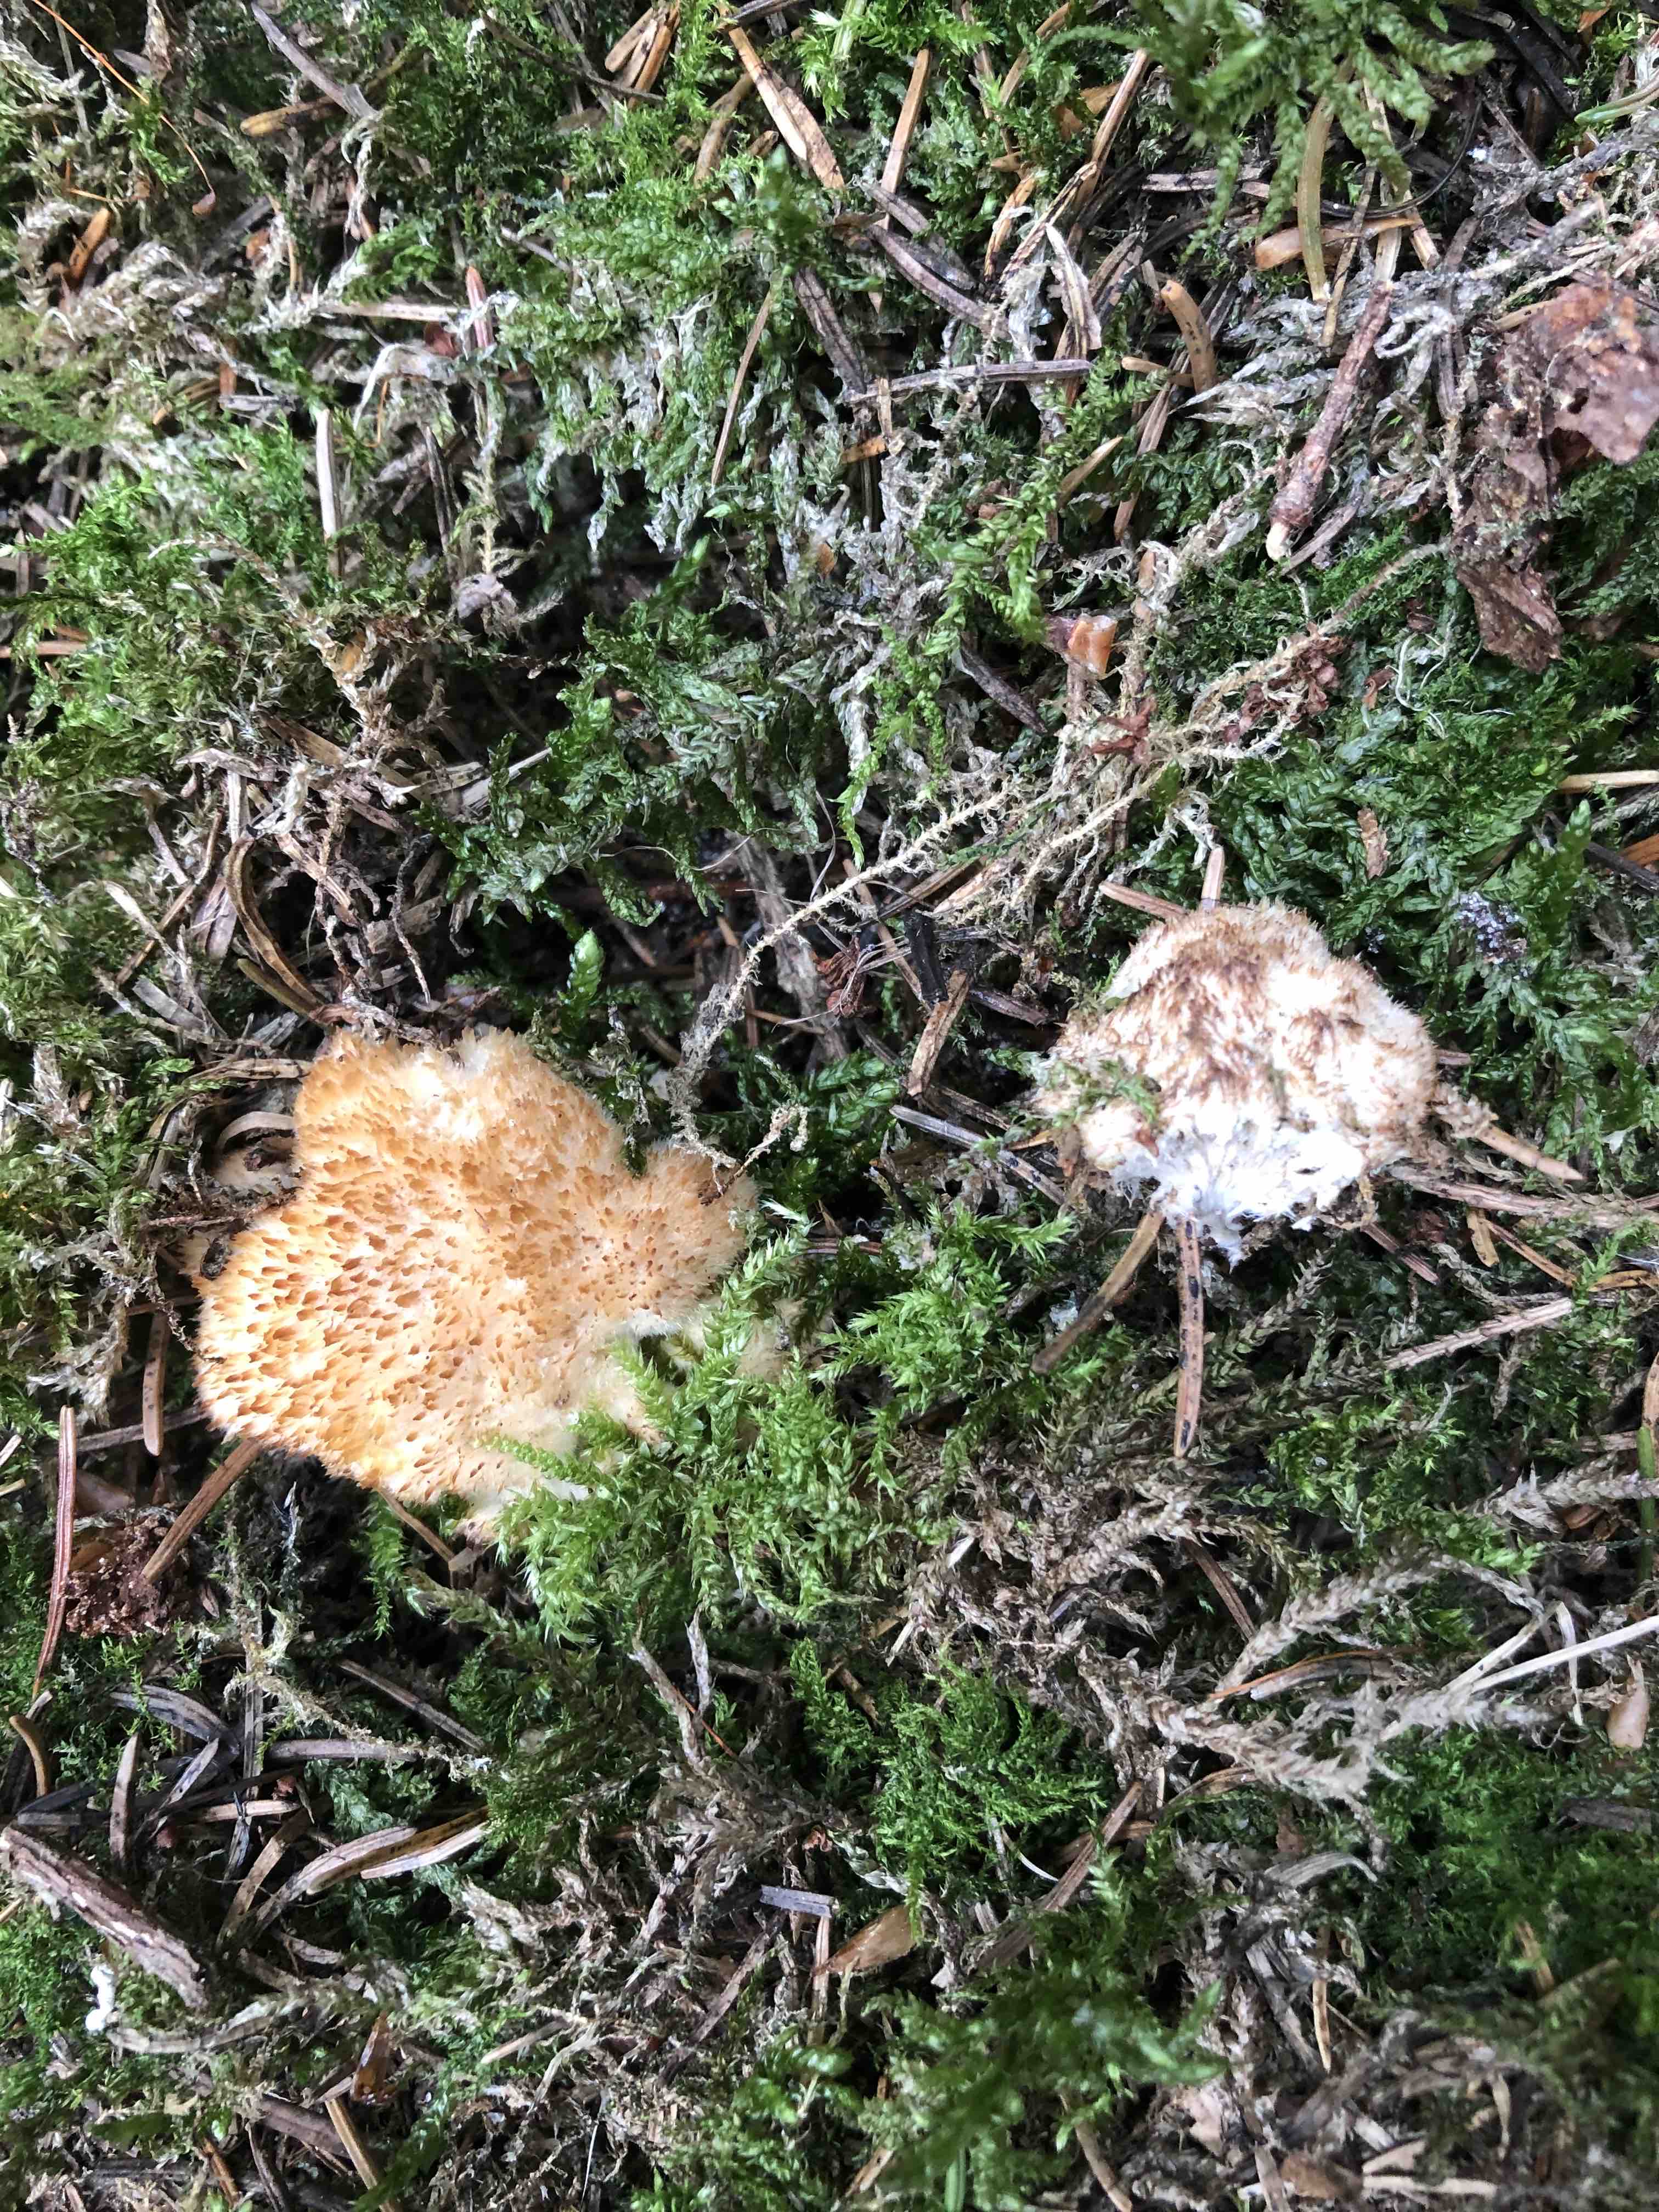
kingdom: Fungi
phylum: Basidiomycota
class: Agaricomycetes
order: Polyporales
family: Dacryobolaceae
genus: Postia
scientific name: Postia ptychogaster
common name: støvende kødporesvamp
